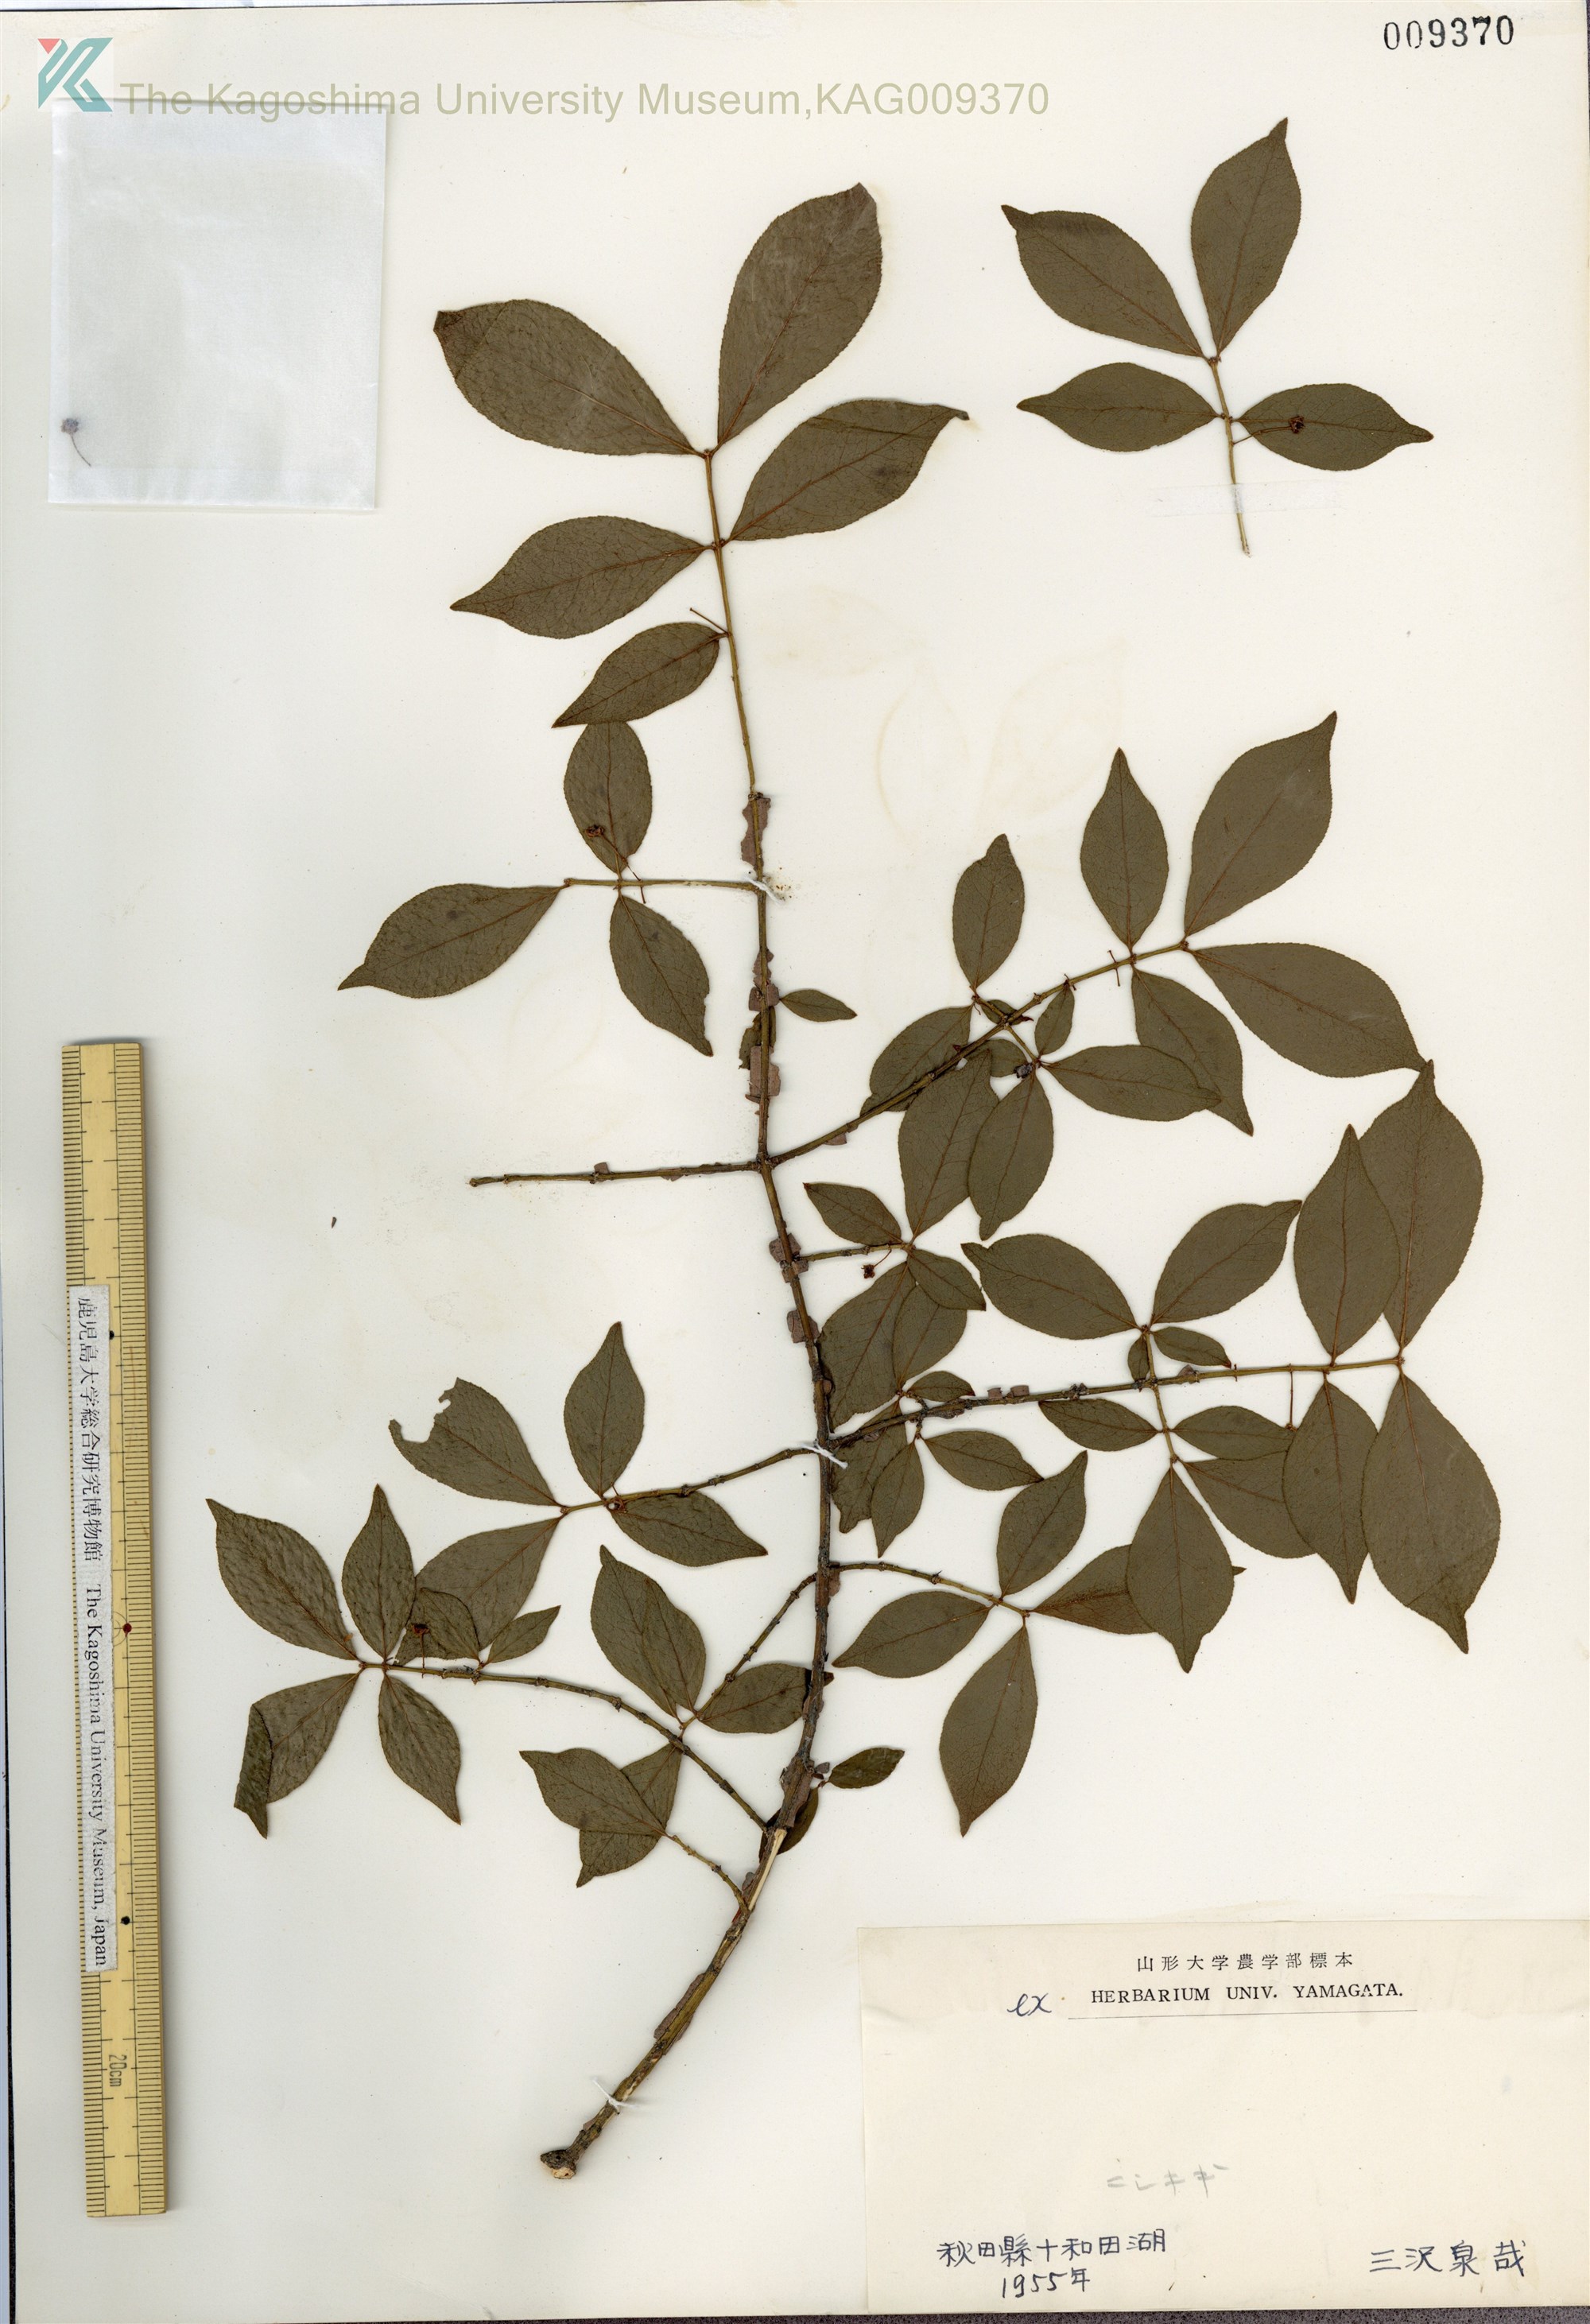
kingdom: Plantae
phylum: Tracheophyta
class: Magnoliopsida
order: Celastrales
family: Celastraceae
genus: Euonymus
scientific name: Euonymus alatus
